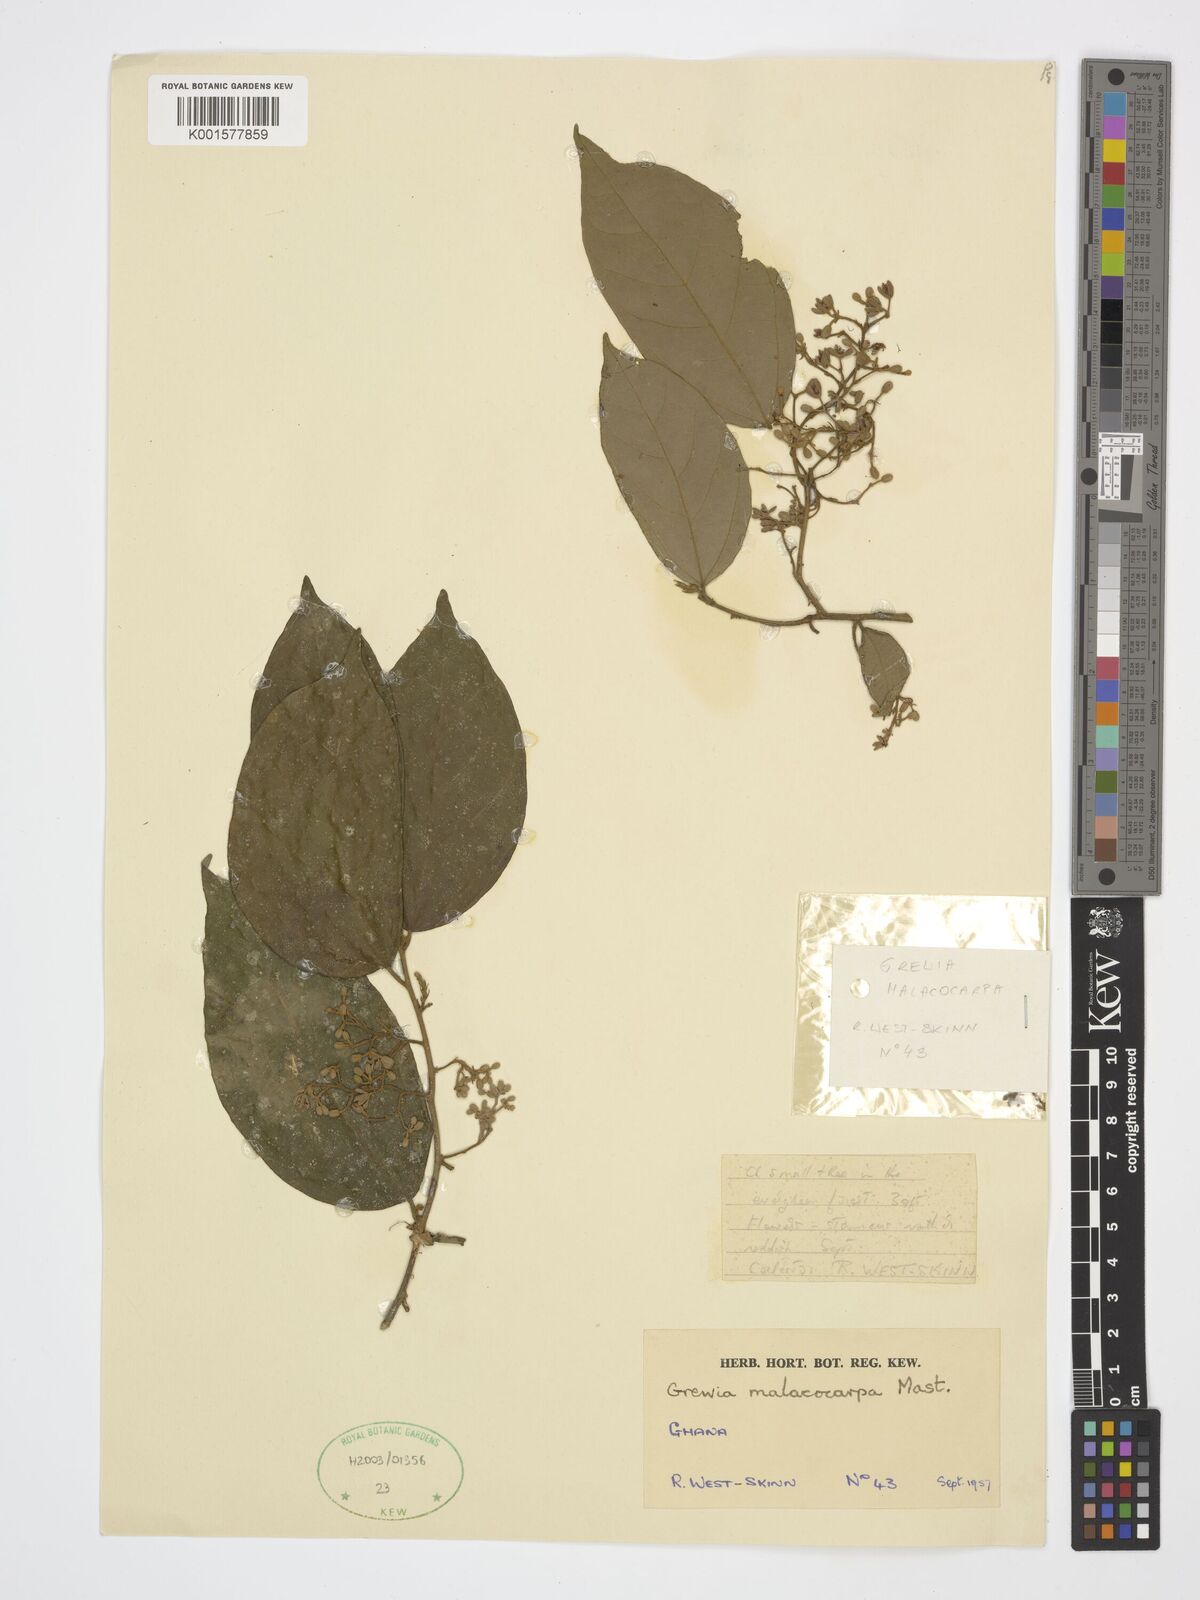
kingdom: Plantae
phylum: Tracheophyta
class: Magnoliopsida
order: Malvales
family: Malvaceae
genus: Microcos
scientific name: Microcos malacocarpa
